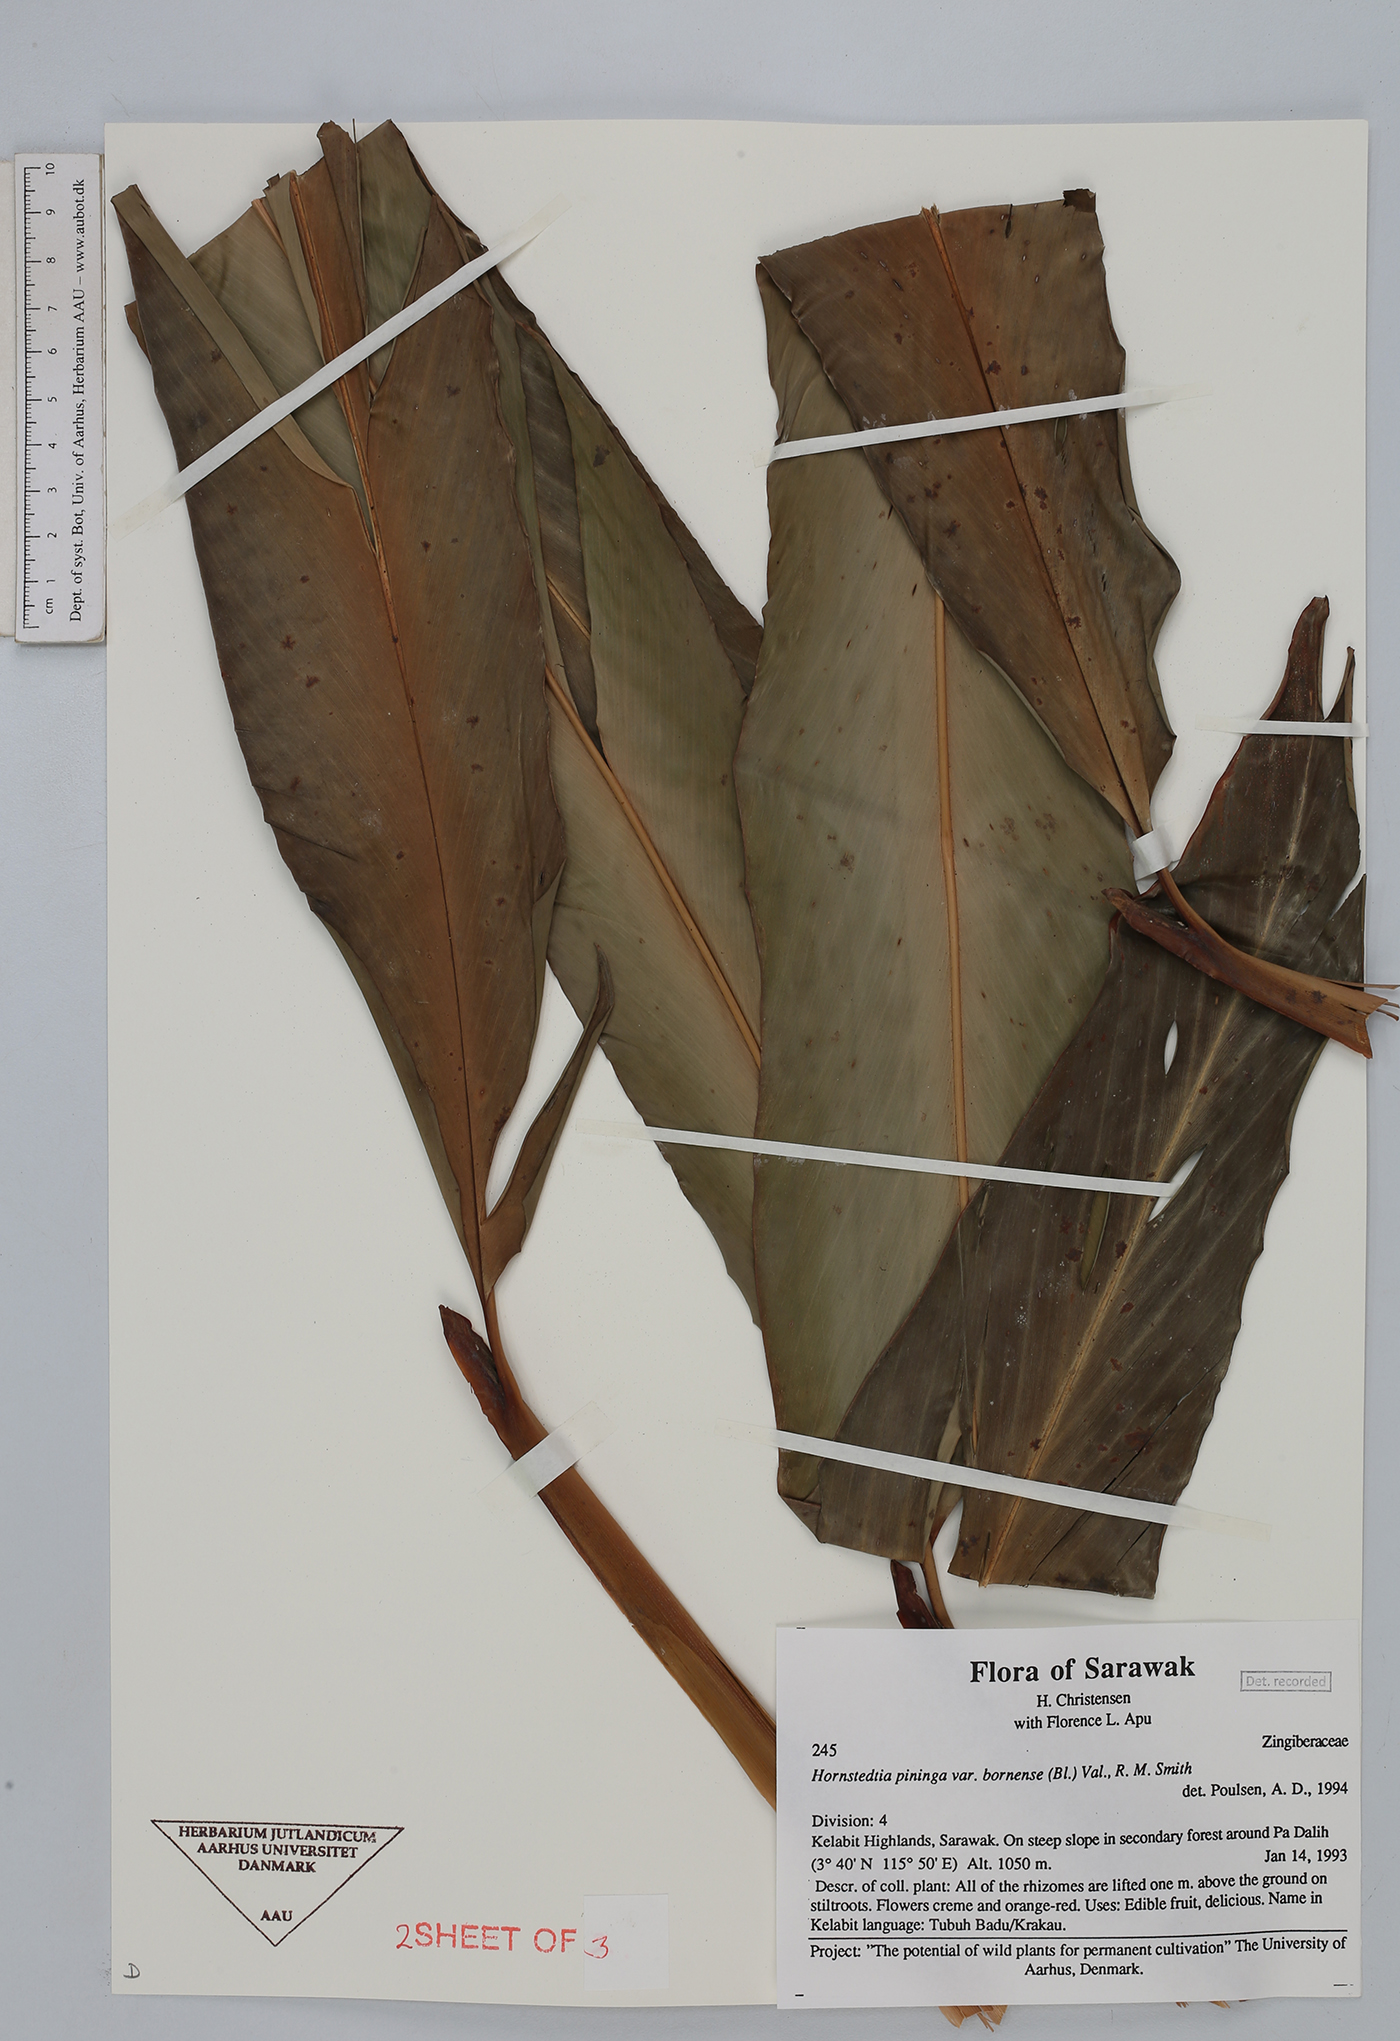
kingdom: Plantae
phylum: Tracheophyta
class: Liliopsida
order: Zingiberales
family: Zingiberaceae
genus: Hornstedtia
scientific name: Hornstedtia pininga
